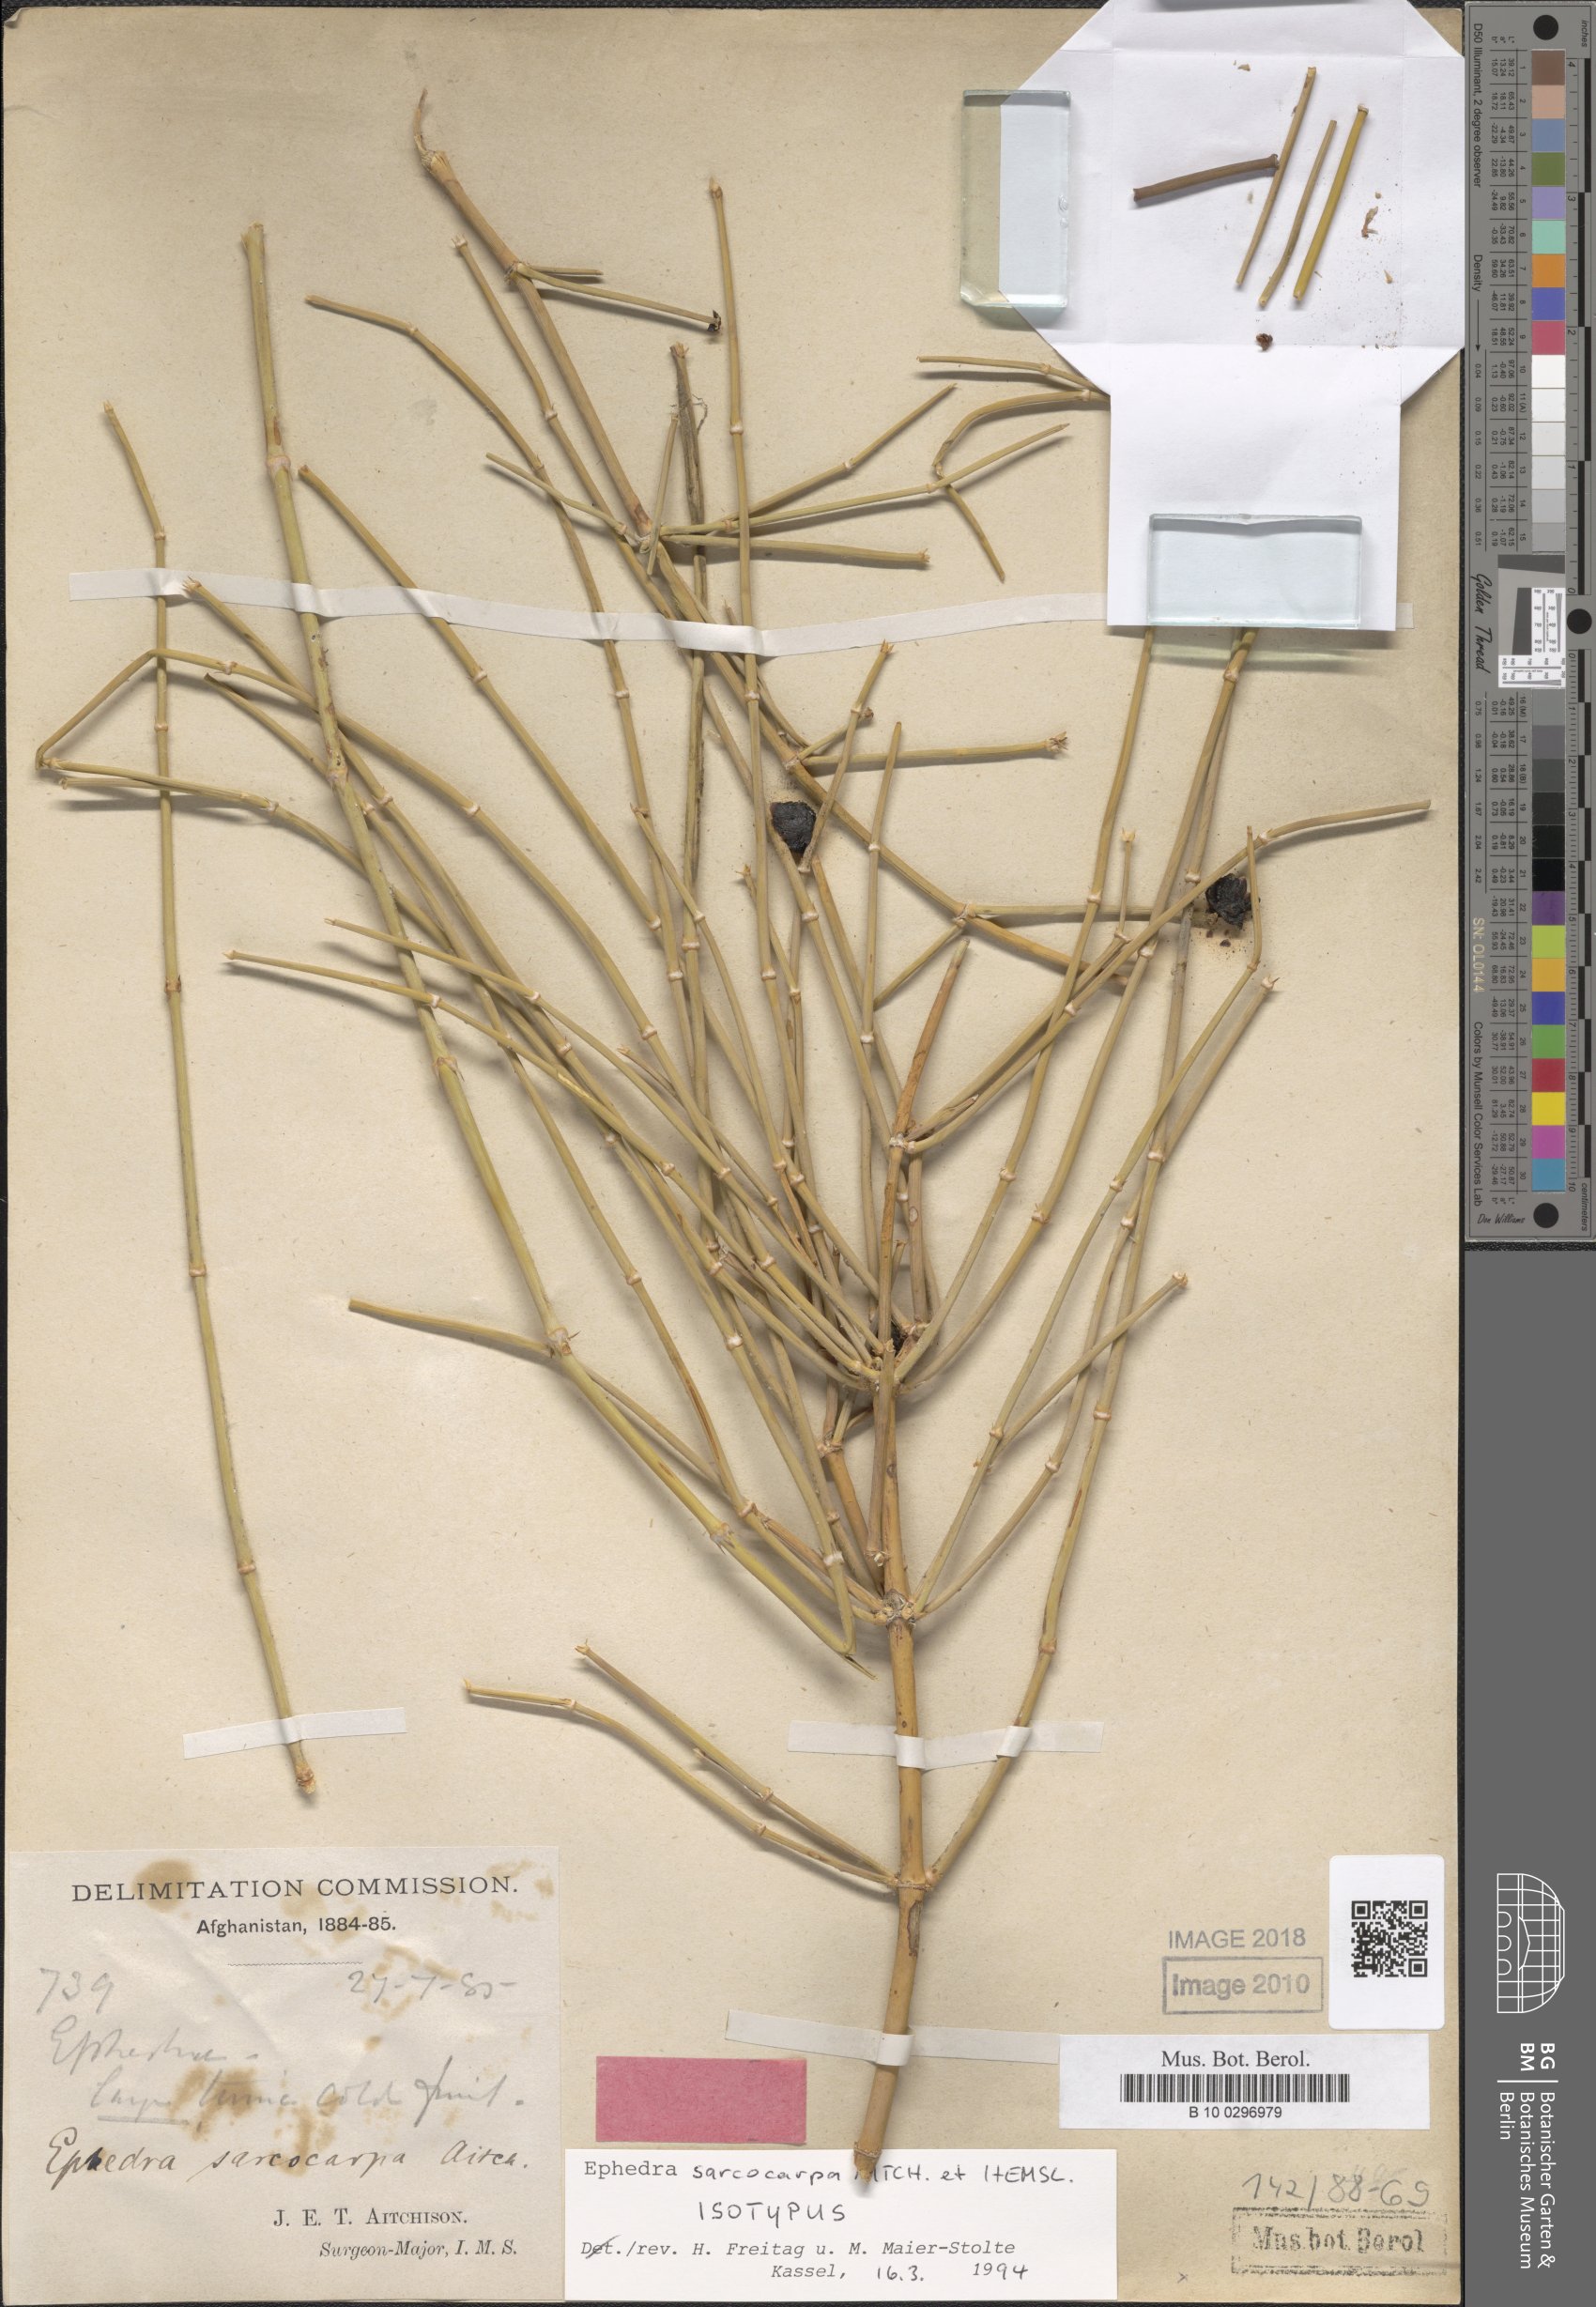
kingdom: Plantae
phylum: Tracheophyta
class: Gnetopsida
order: Ephedrales
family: Ephedraceae
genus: Ephedra
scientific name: Ephedra sarcocarpa
